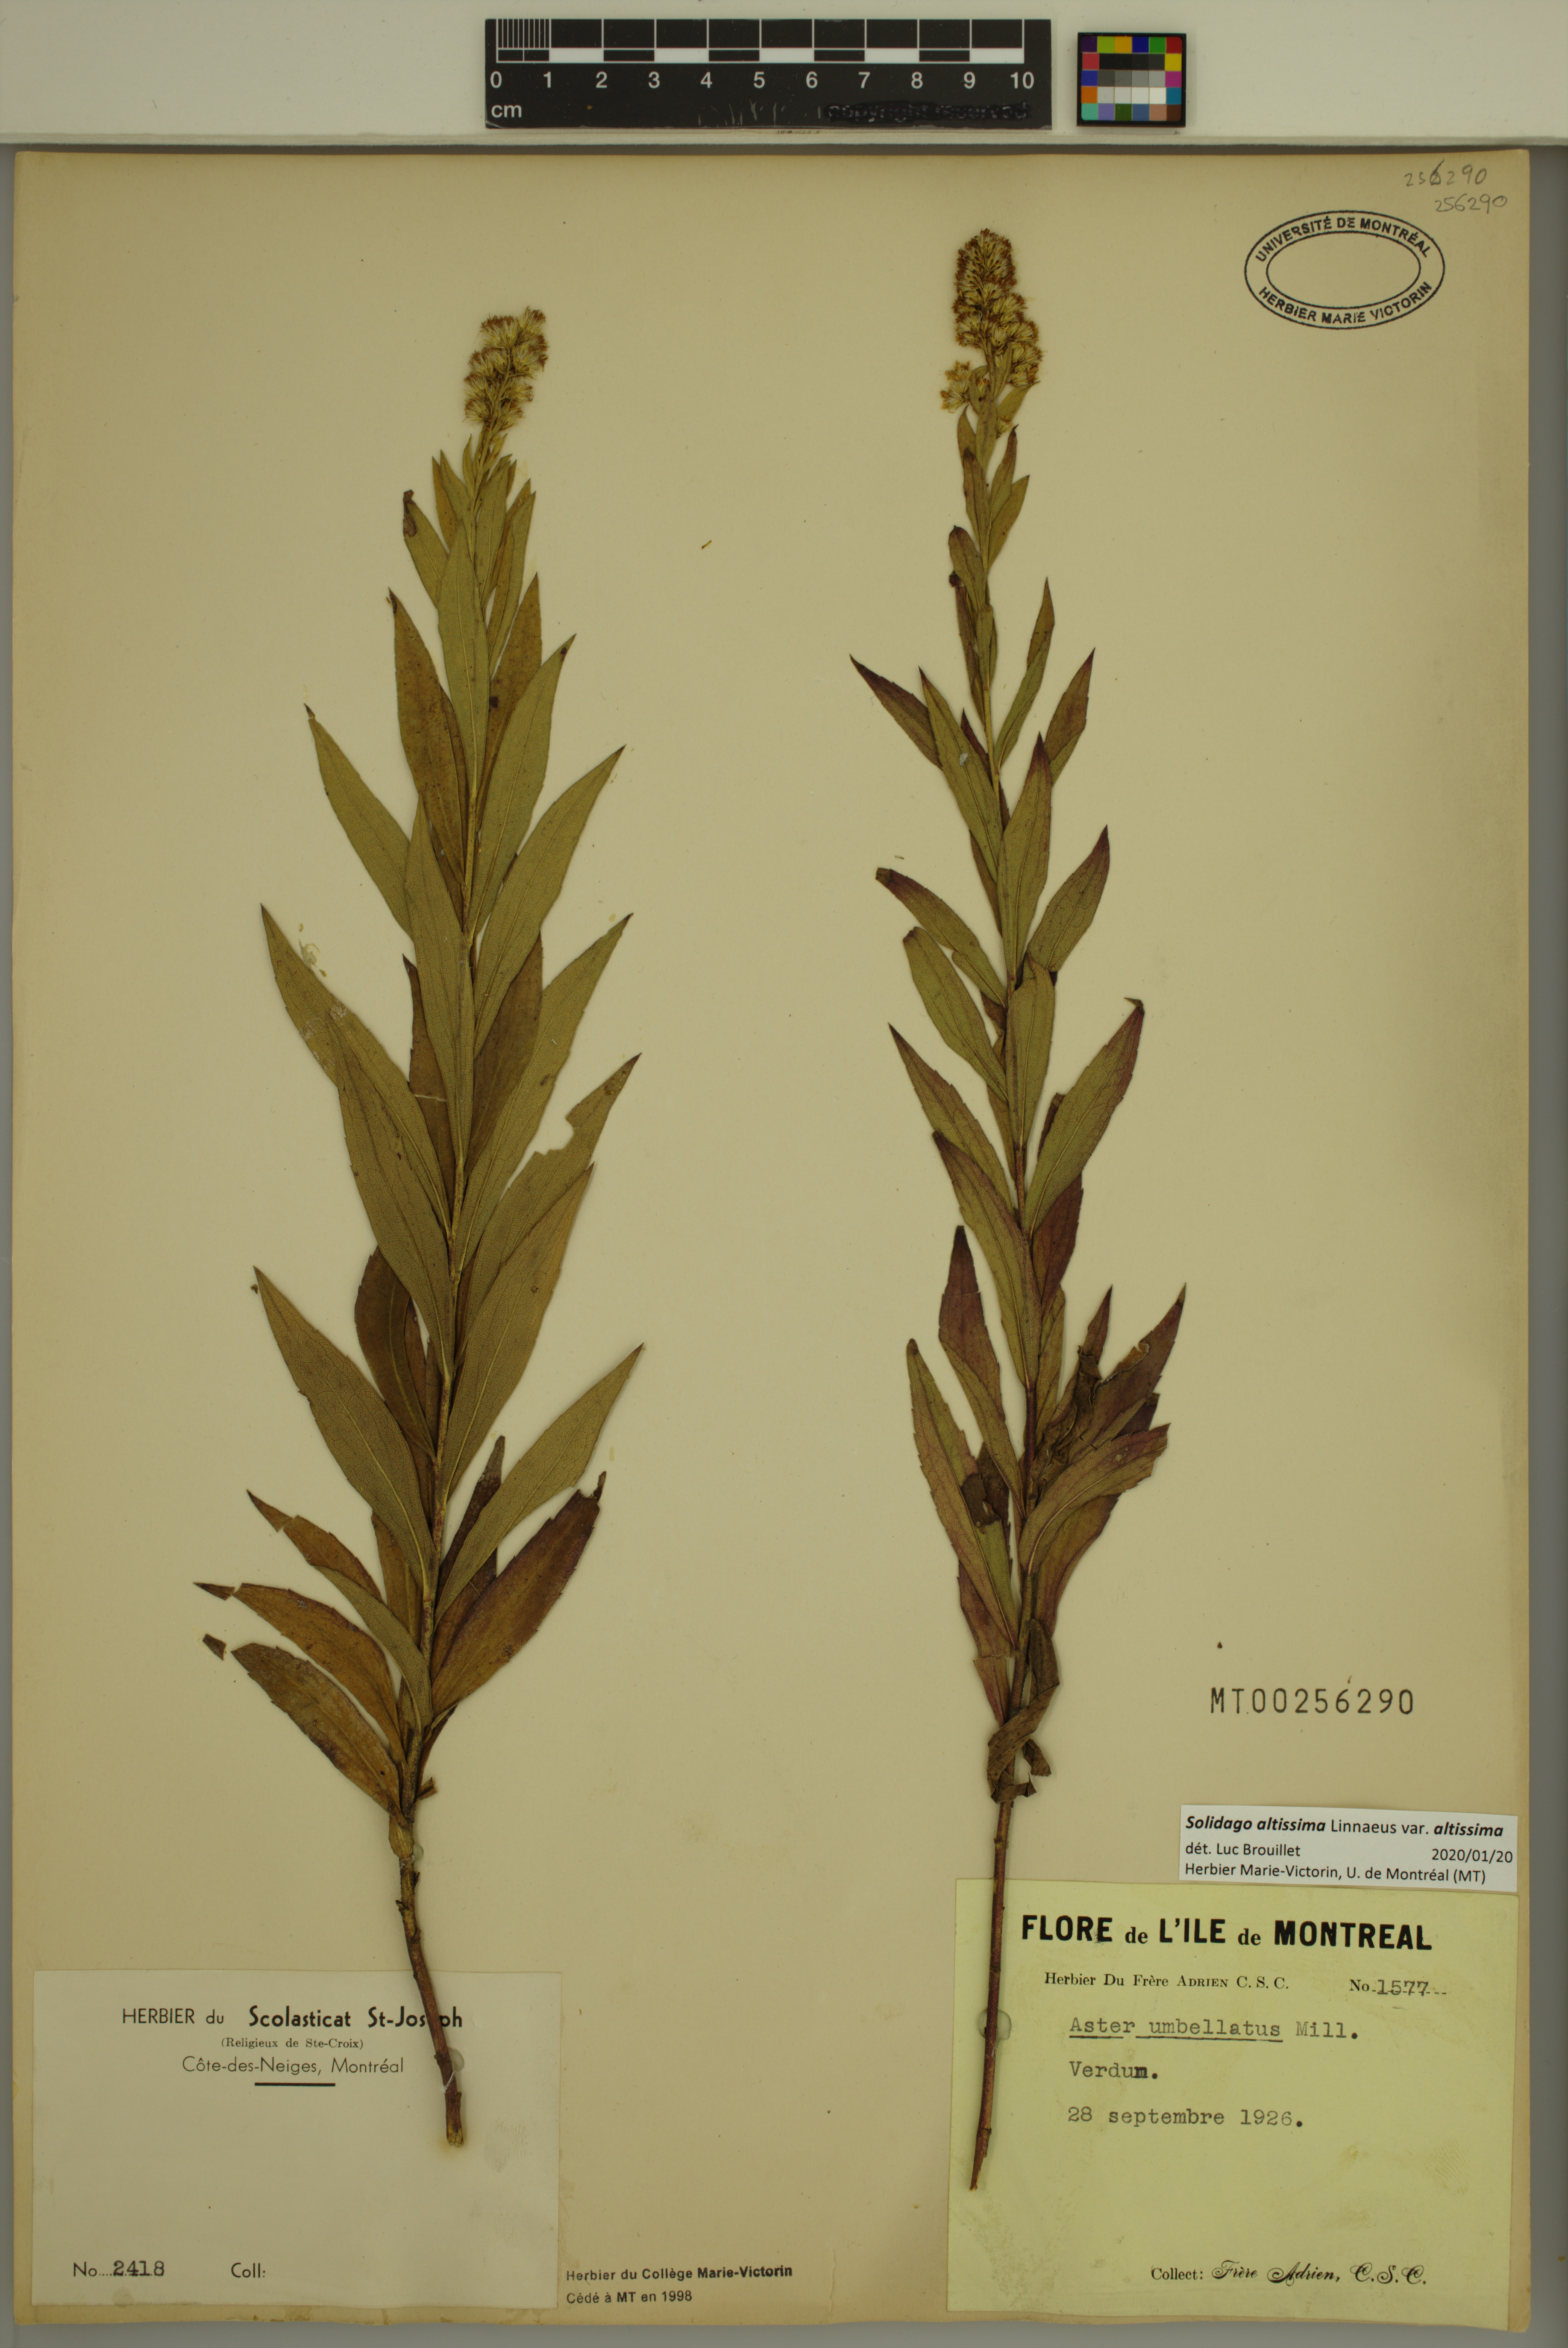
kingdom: Plantae
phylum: Tracheophyta
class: Magnoliopsida
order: Asterales
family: Asteraceae
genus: Solidago
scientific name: Solidago altissima
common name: Late goldenrod
